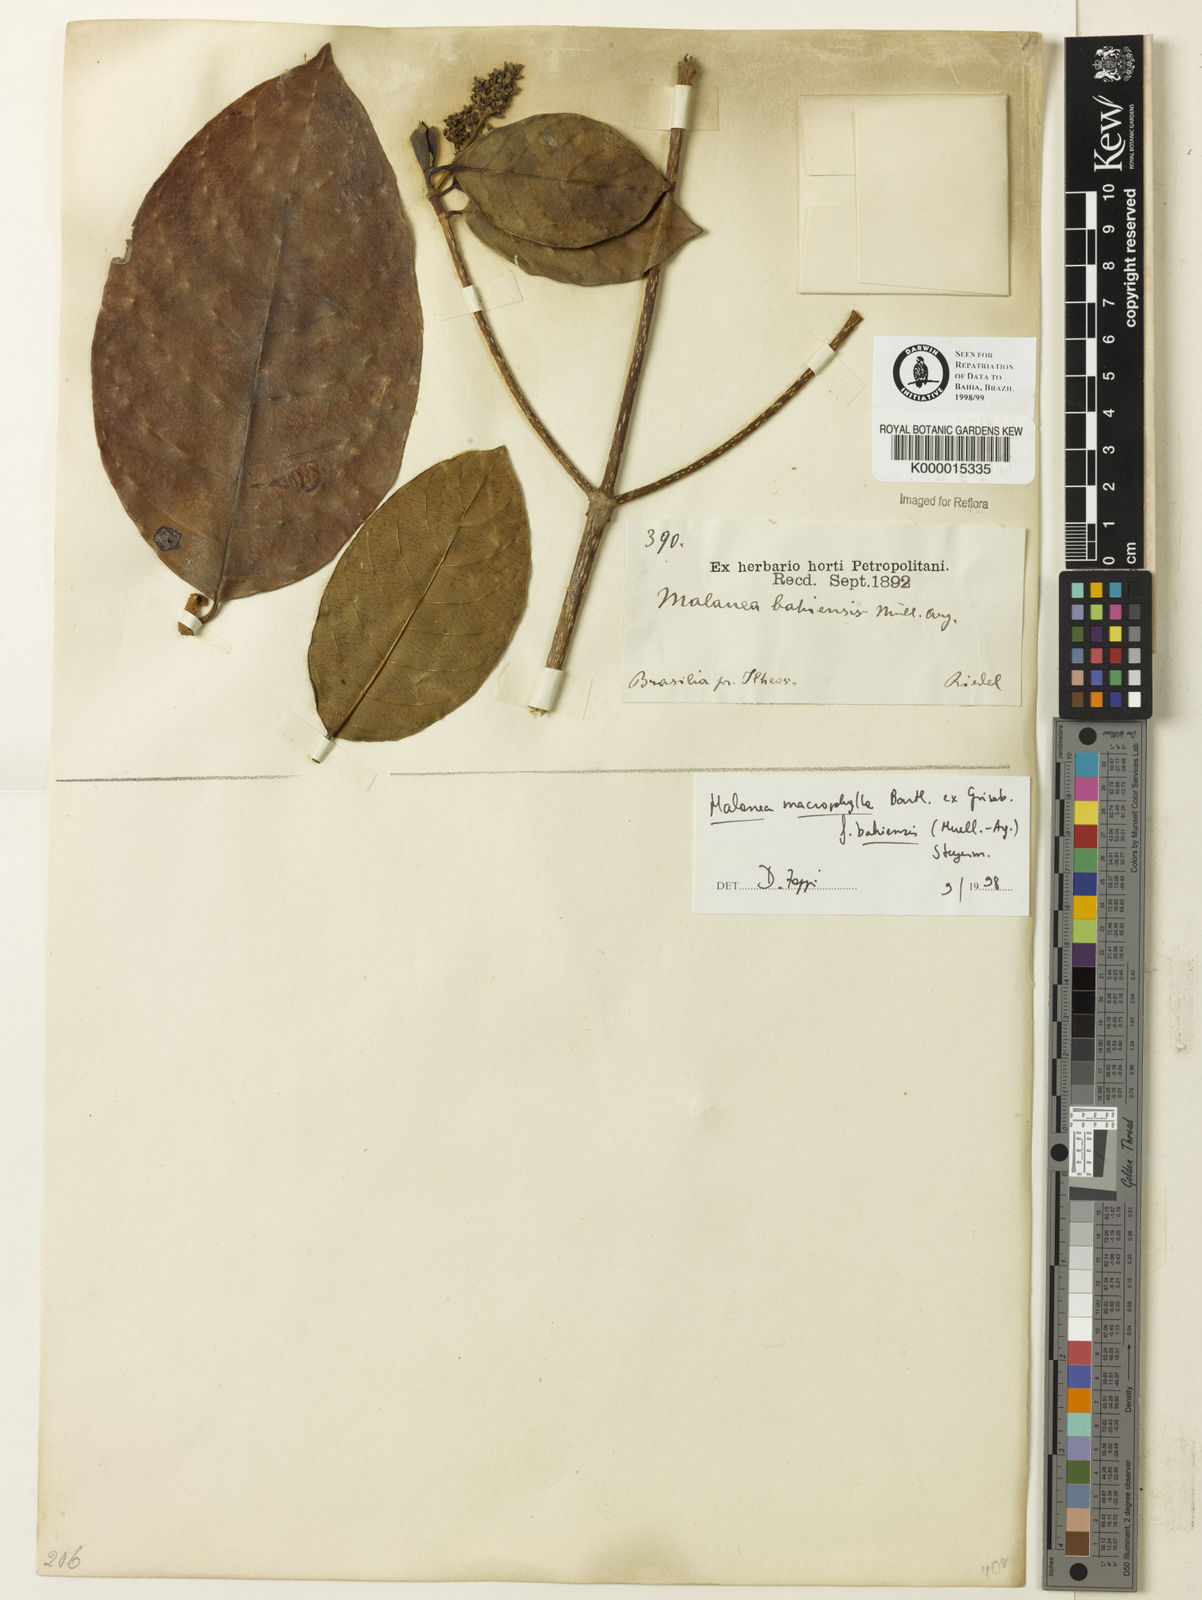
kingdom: Plantae
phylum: Tracheophyta
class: Magnoliopsida
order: Gentianales
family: Rubiaceae
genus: Malanea
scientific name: Malanea glabra
